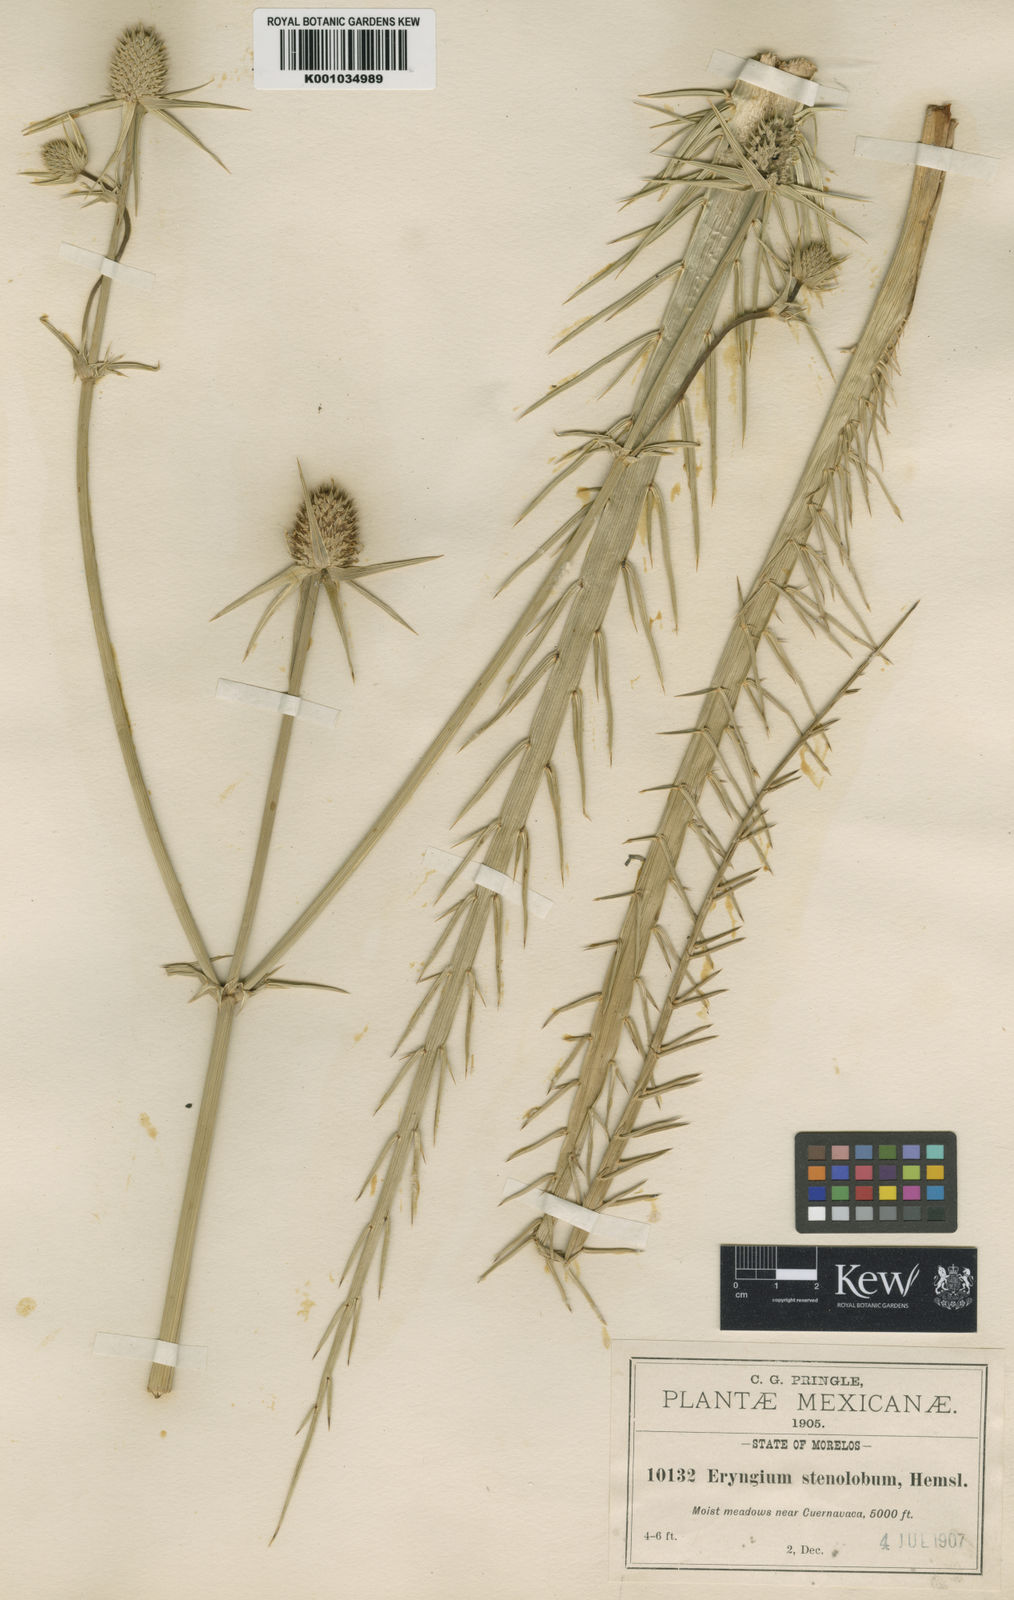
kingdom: Plantae
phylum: Tracheophyta
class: Magnoliopsida
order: Apiales
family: Apiaceae
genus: Eryngium
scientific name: Eryngium pectinatum
